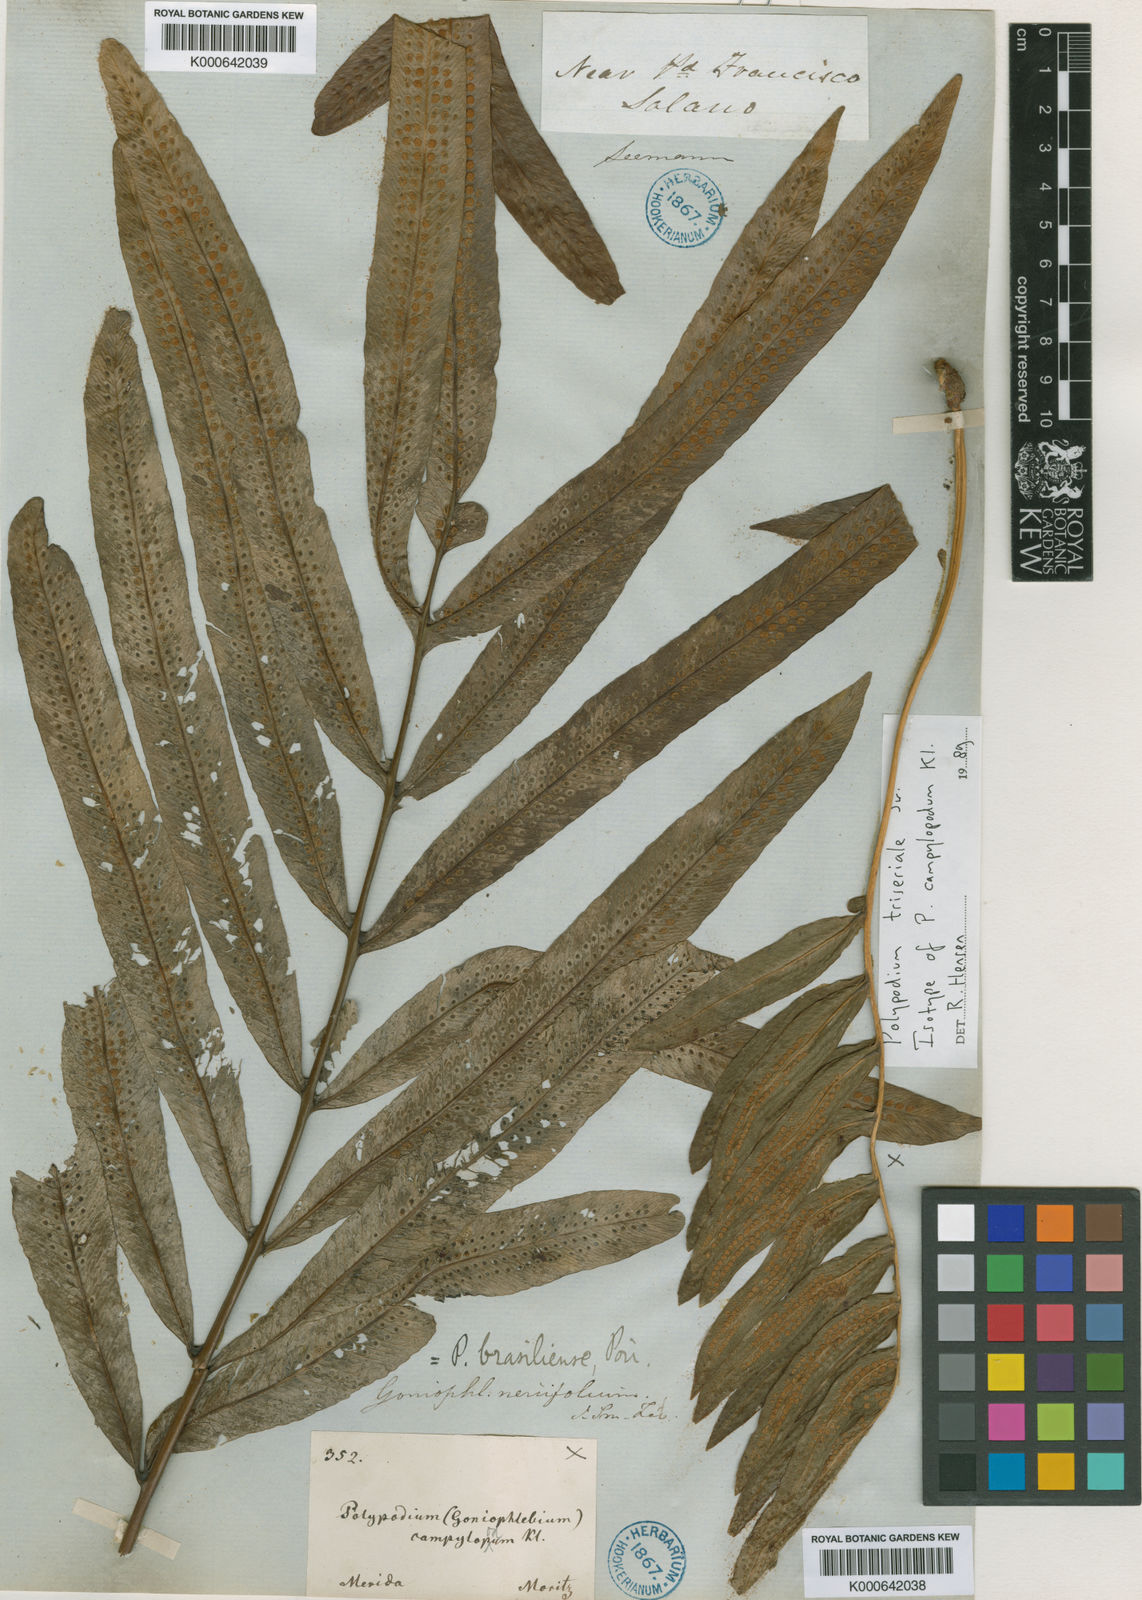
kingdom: Plantae
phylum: Tracheophyta
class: Polypodiopsida
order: Polypodiales
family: Polypodiaceae
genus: Serpocaulon
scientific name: Serpocaulon triseriale
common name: Angle-vein fern
